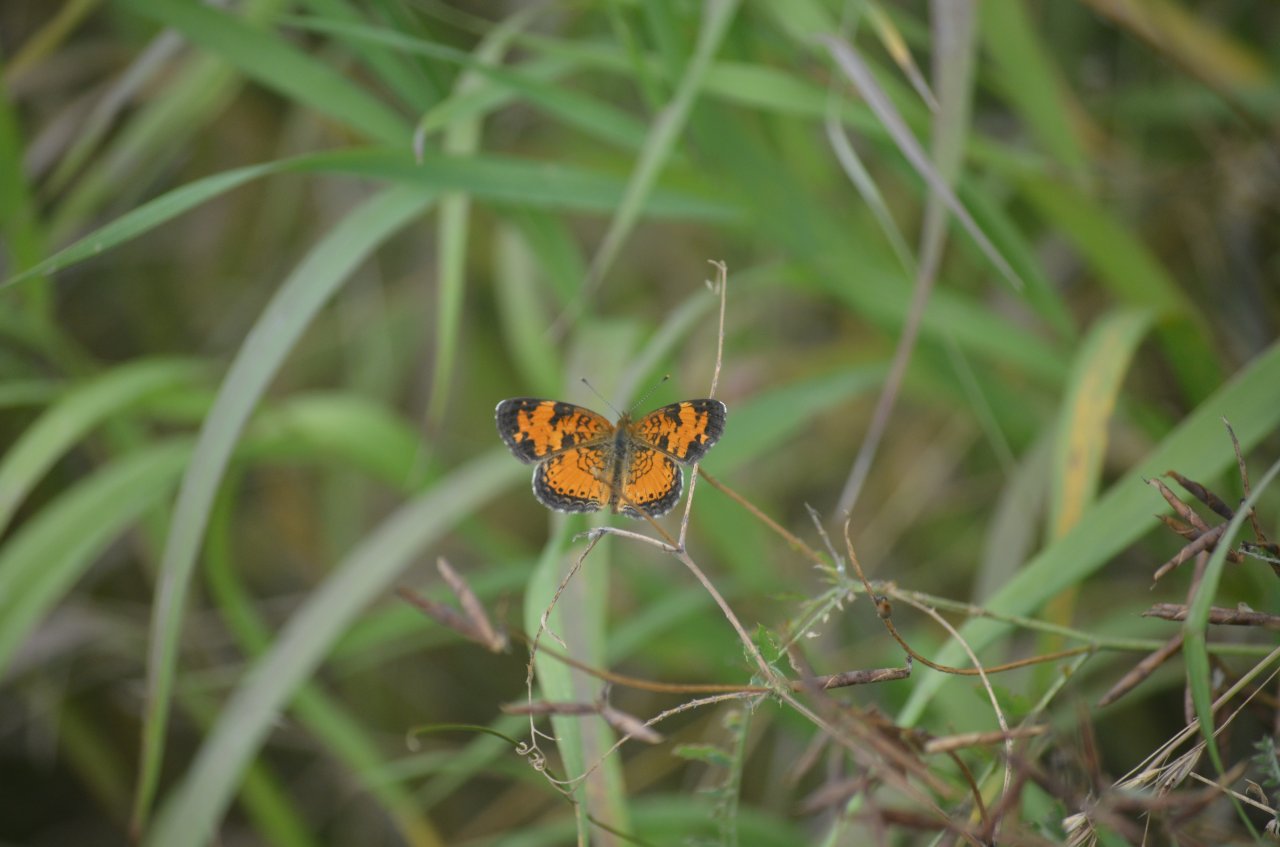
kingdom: Animalia
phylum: Arthropoda
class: Insecta
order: Lepidoptera
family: Nymphalidae
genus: Phyciodes
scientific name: Phyciodes tharos
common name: Northern Crescent
